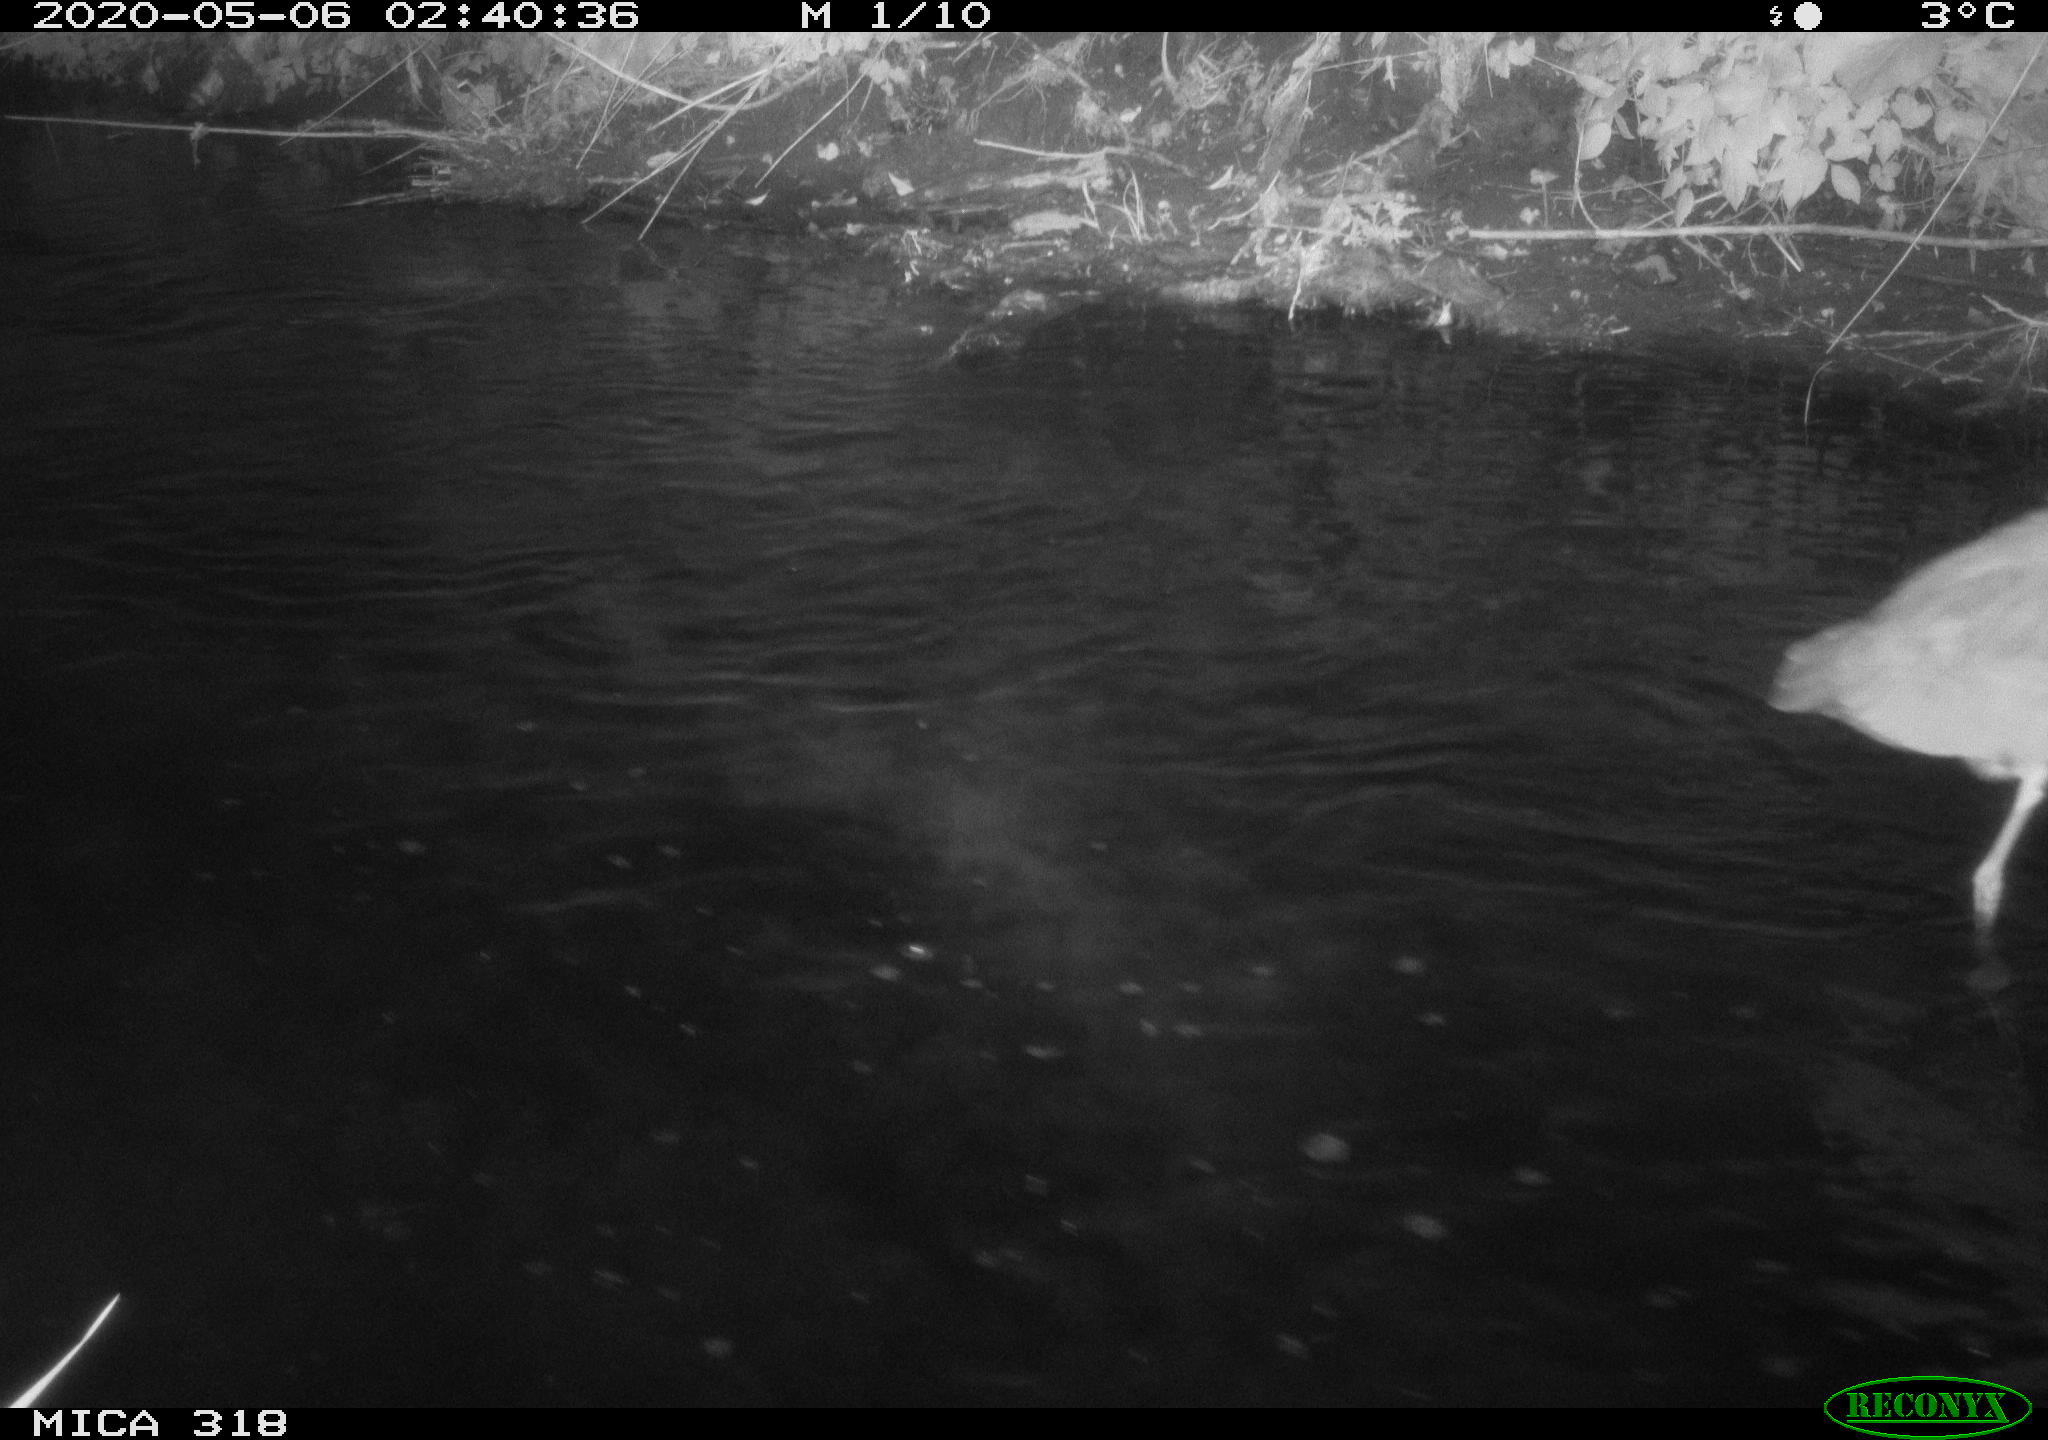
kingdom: Animalia
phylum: Chordata
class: Aves
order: Pelecaniformes
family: Ardeidae
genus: Ardea
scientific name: Ardea cinerea
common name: Grey heron
